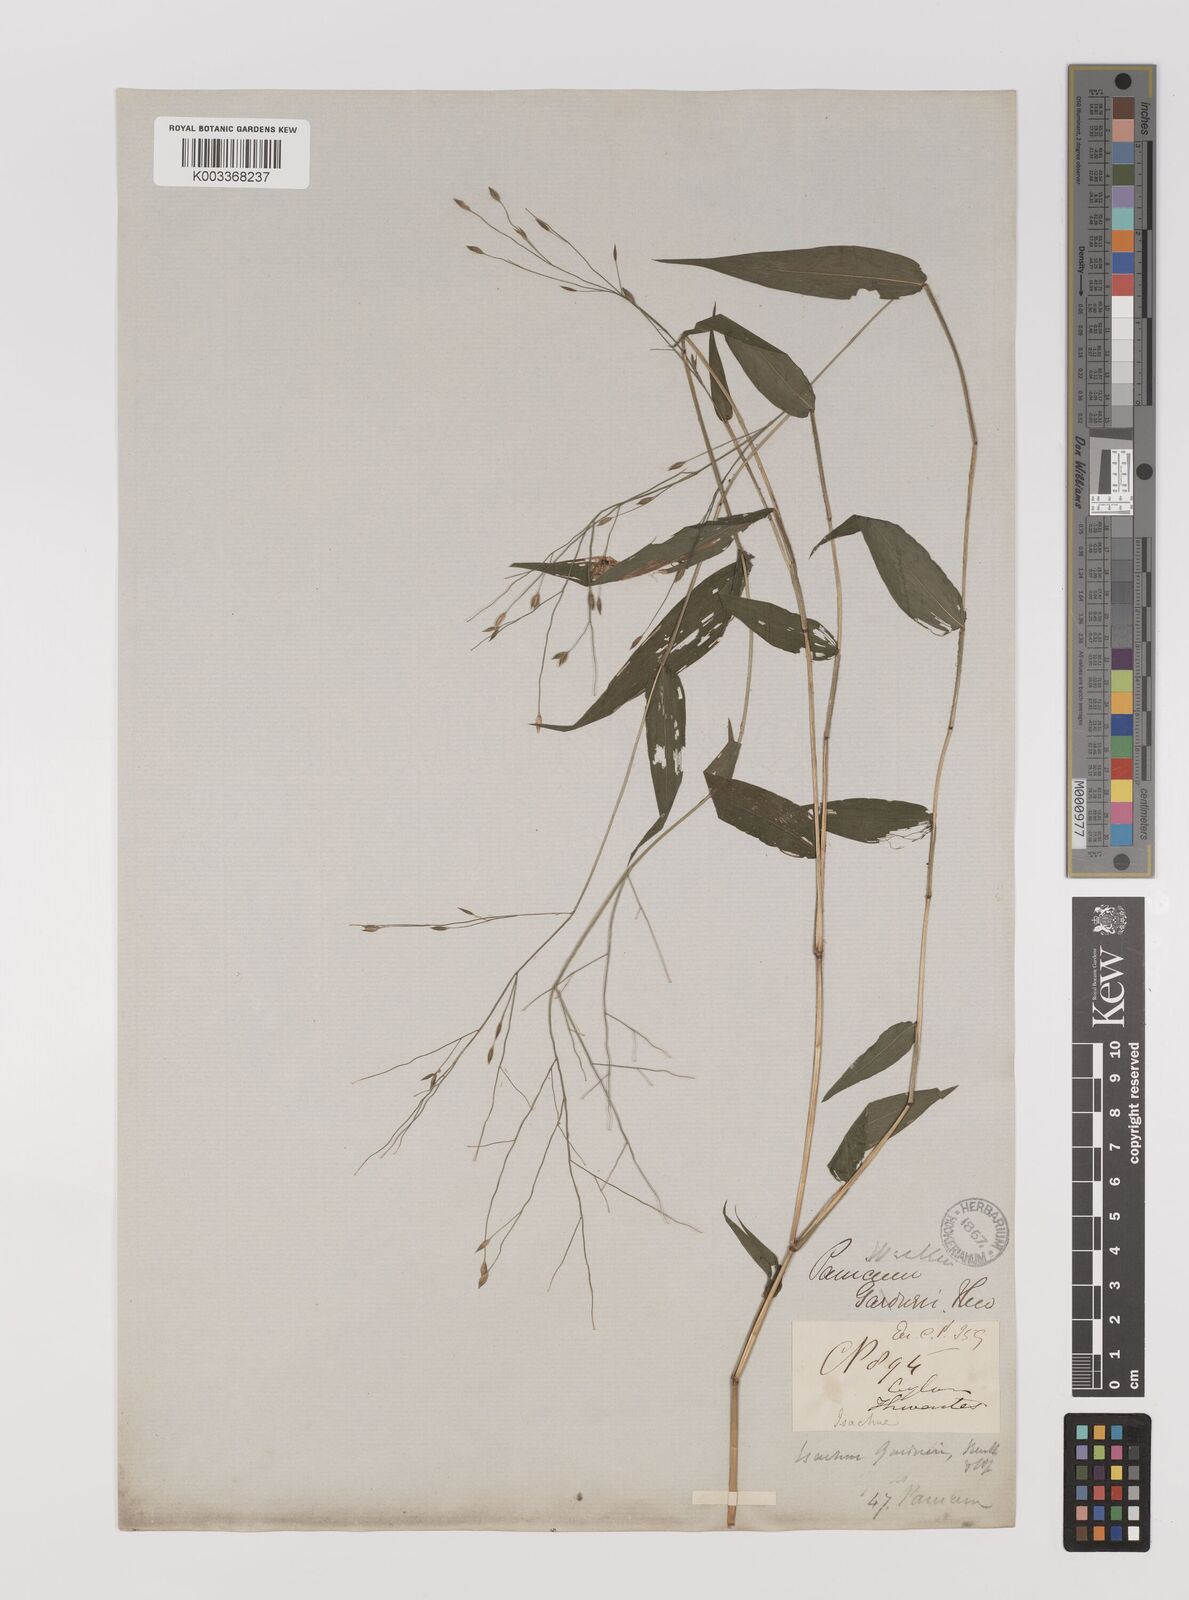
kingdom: Plantae
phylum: Tracheophyta
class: Liliopsida
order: Poales
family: Poaceae
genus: Panicum
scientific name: Panicum gardneri
